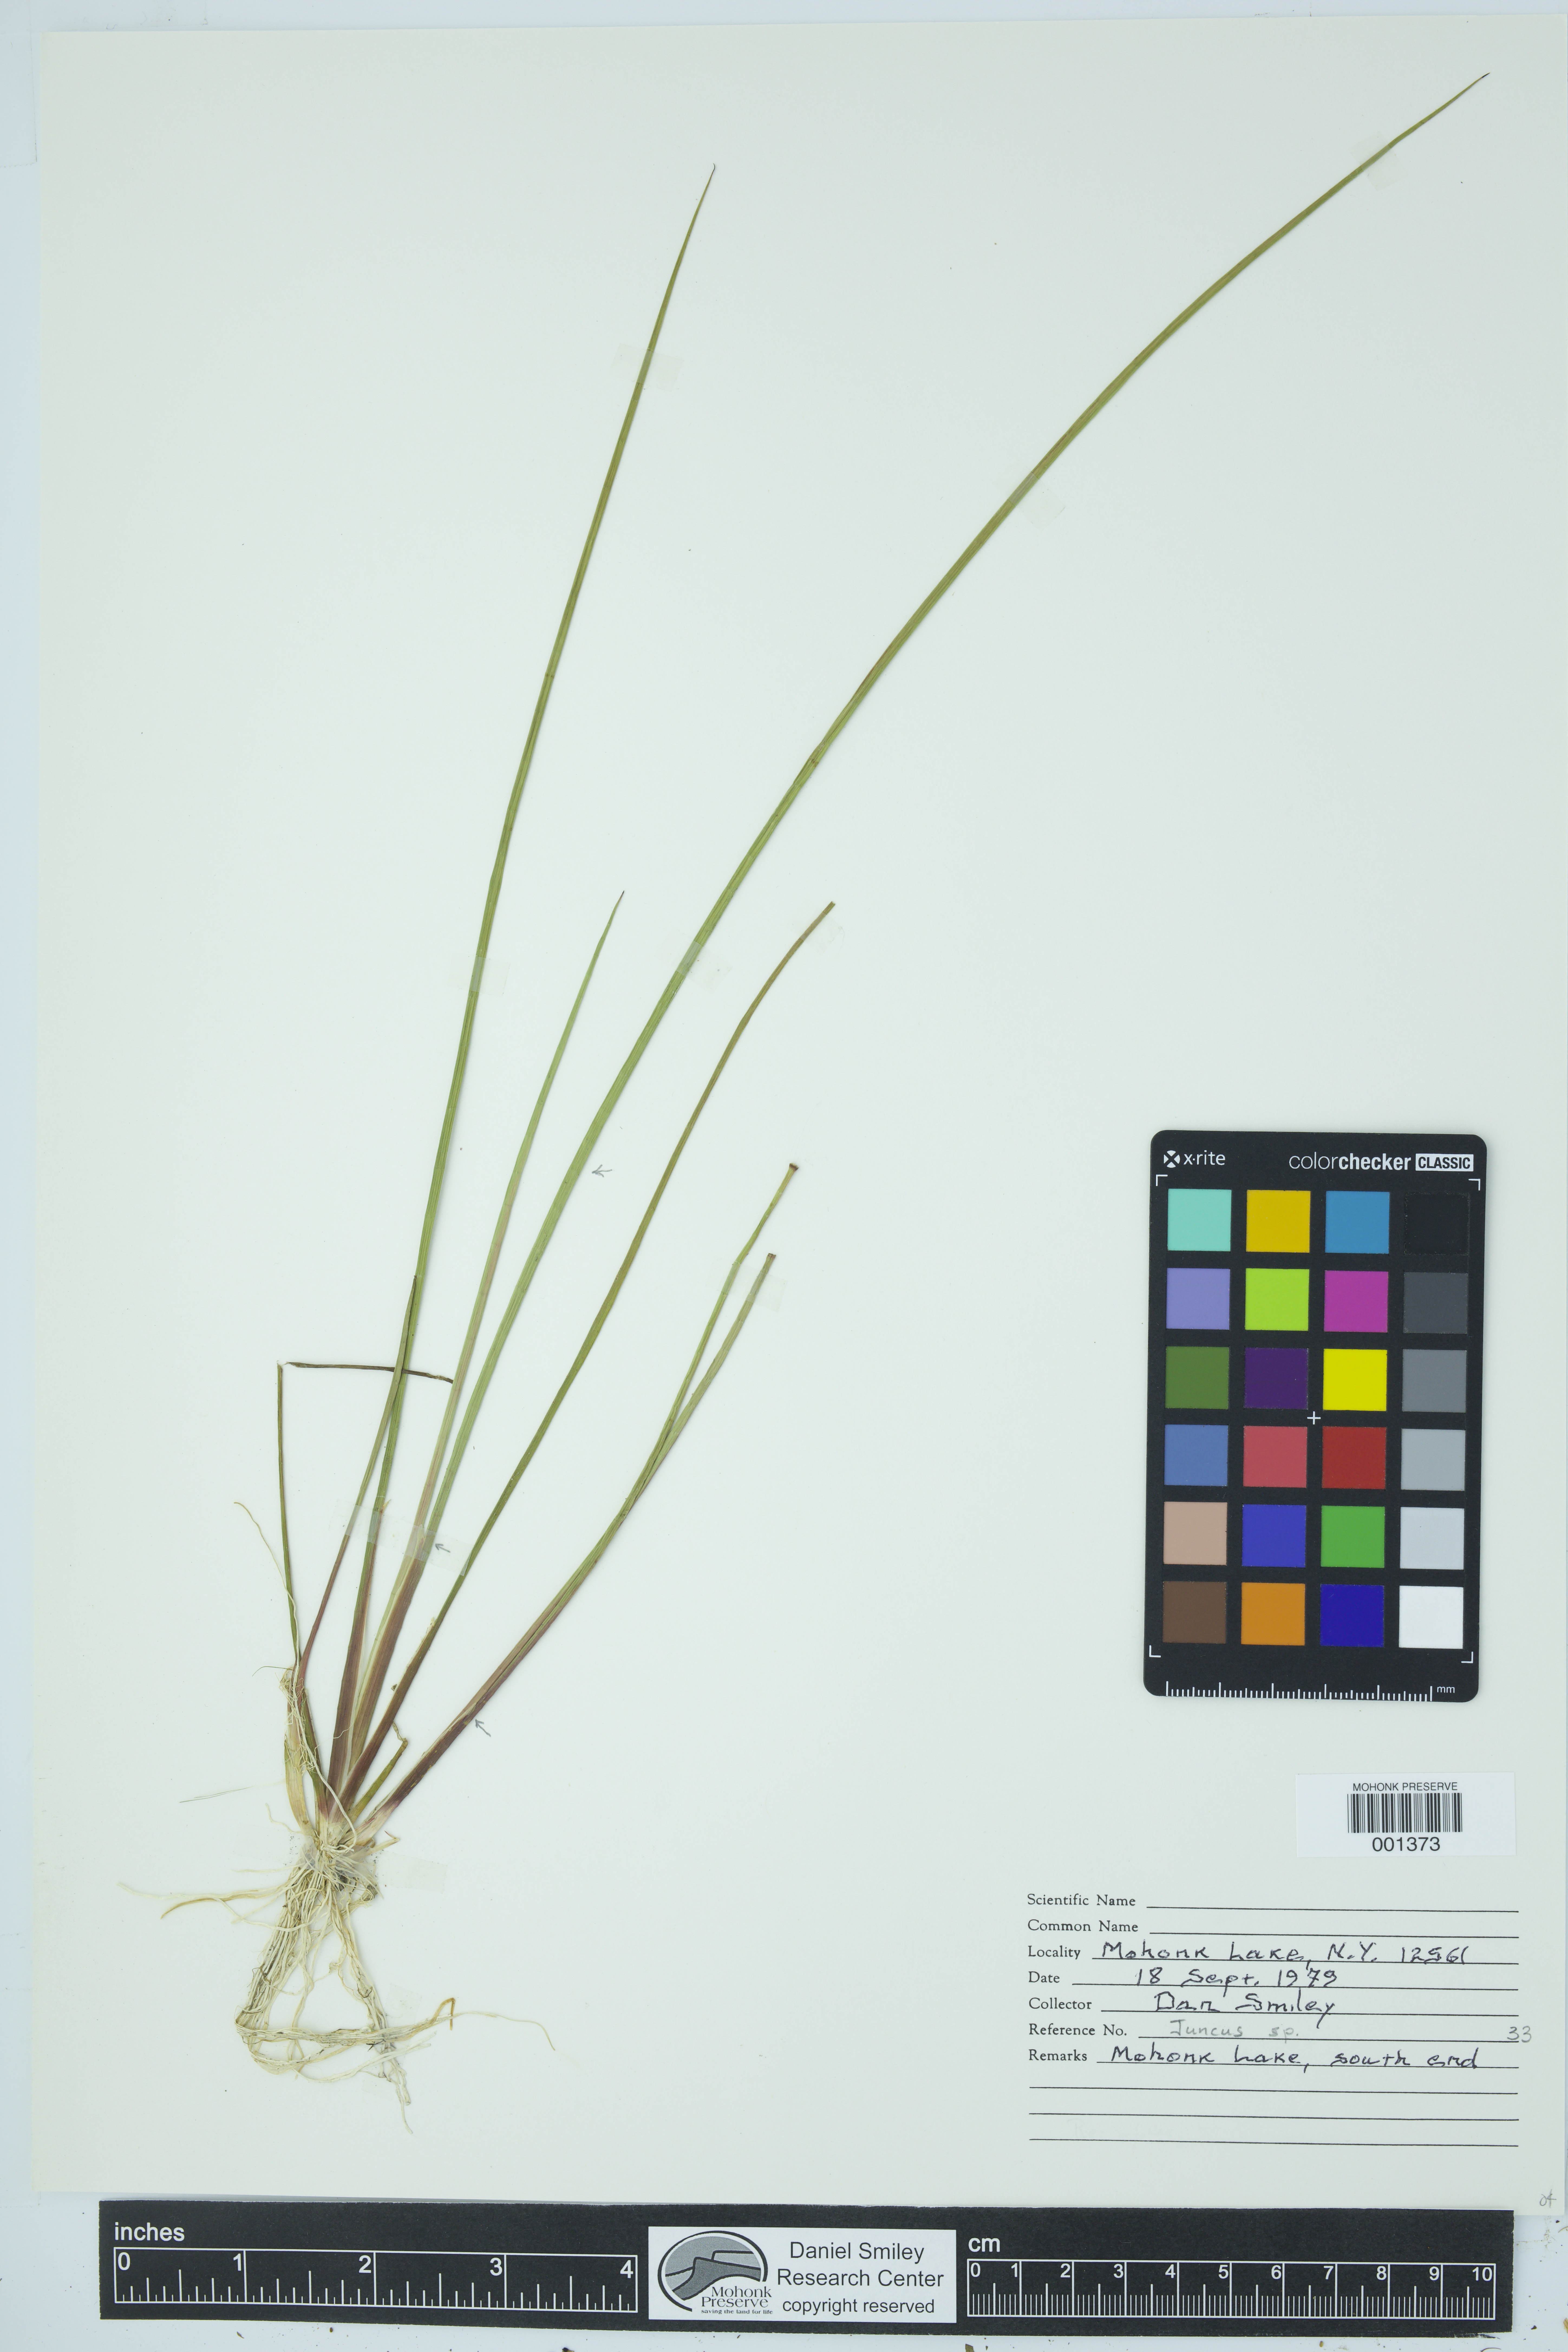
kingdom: Plantae
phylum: Tracheophyta
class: Liliopsida
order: Poales
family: Juncaceae
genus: Juncus
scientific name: Juncus
